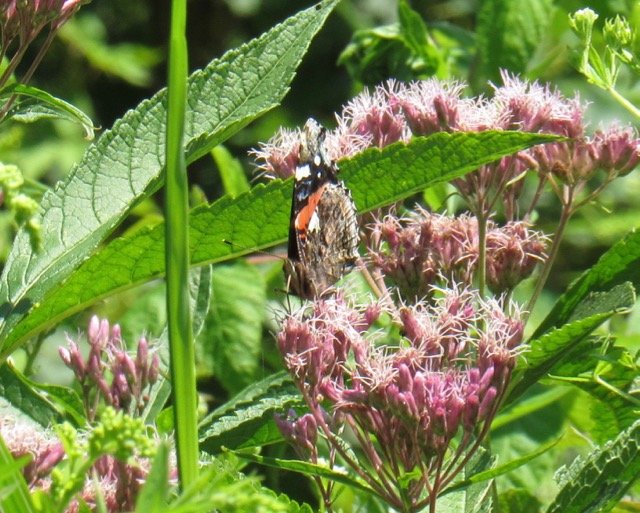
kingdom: Animalia
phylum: Arthropoda
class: Insecta
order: Lepidoptera
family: Nymphalidae
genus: Vanessa
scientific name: Vanessa atalanta
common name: Red Admiral
